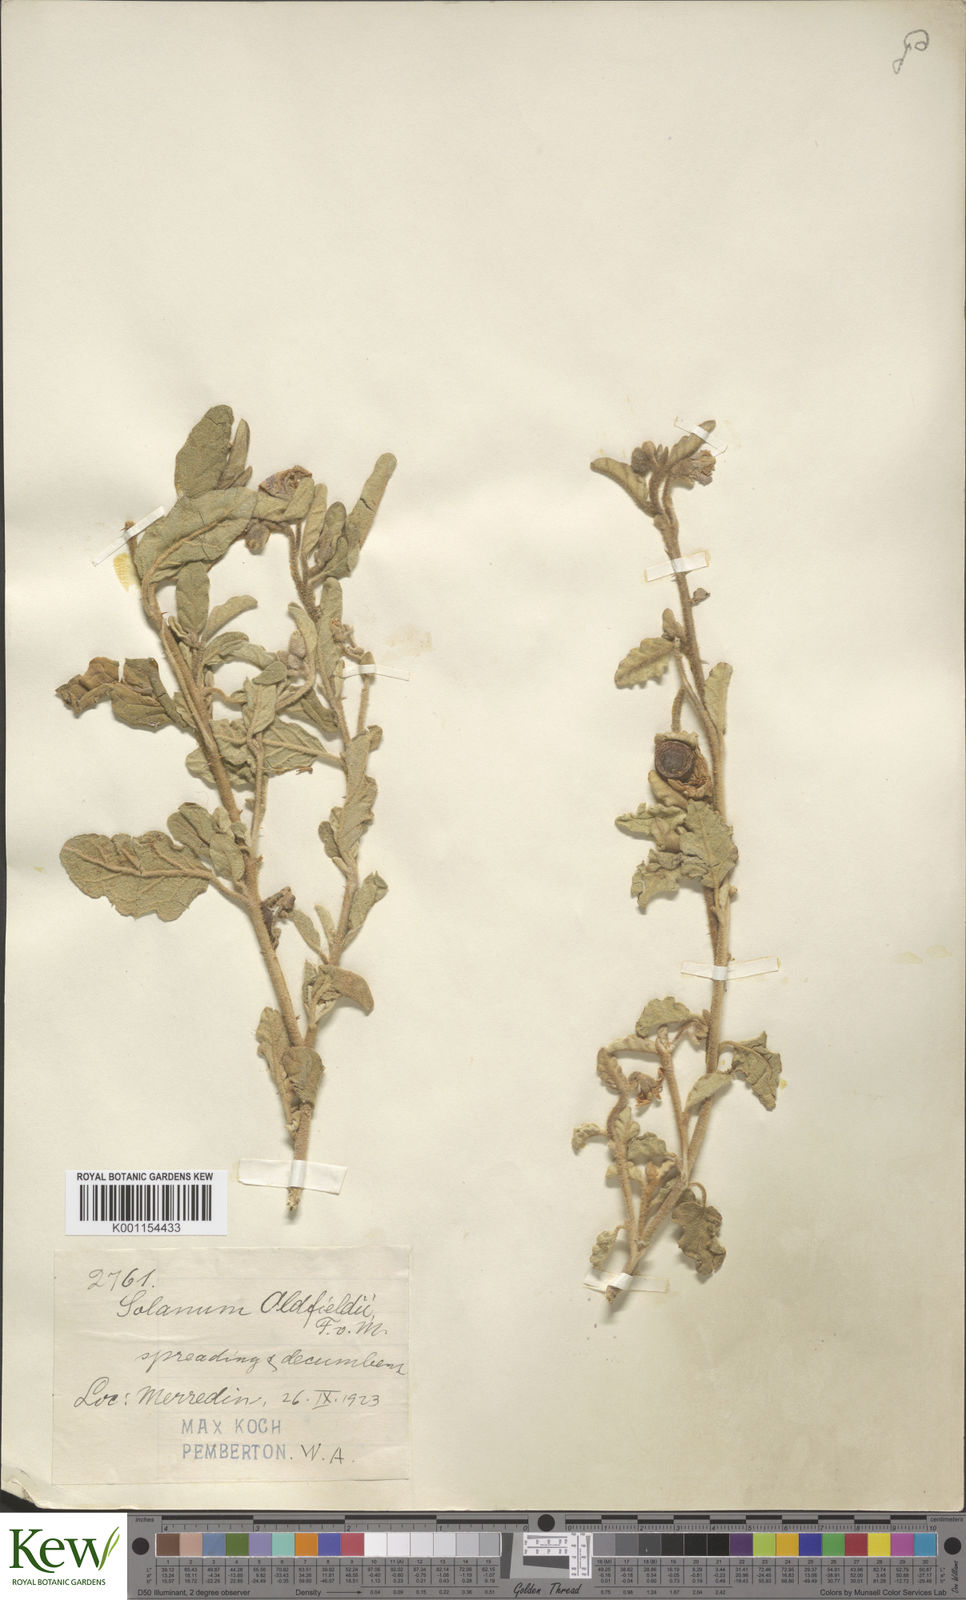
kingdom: Plantae
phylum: Tracheophyta
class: Magnoliopsida
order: Solanales
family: Solanaceae
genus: Solanum
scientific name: Solanum oldfieldii
